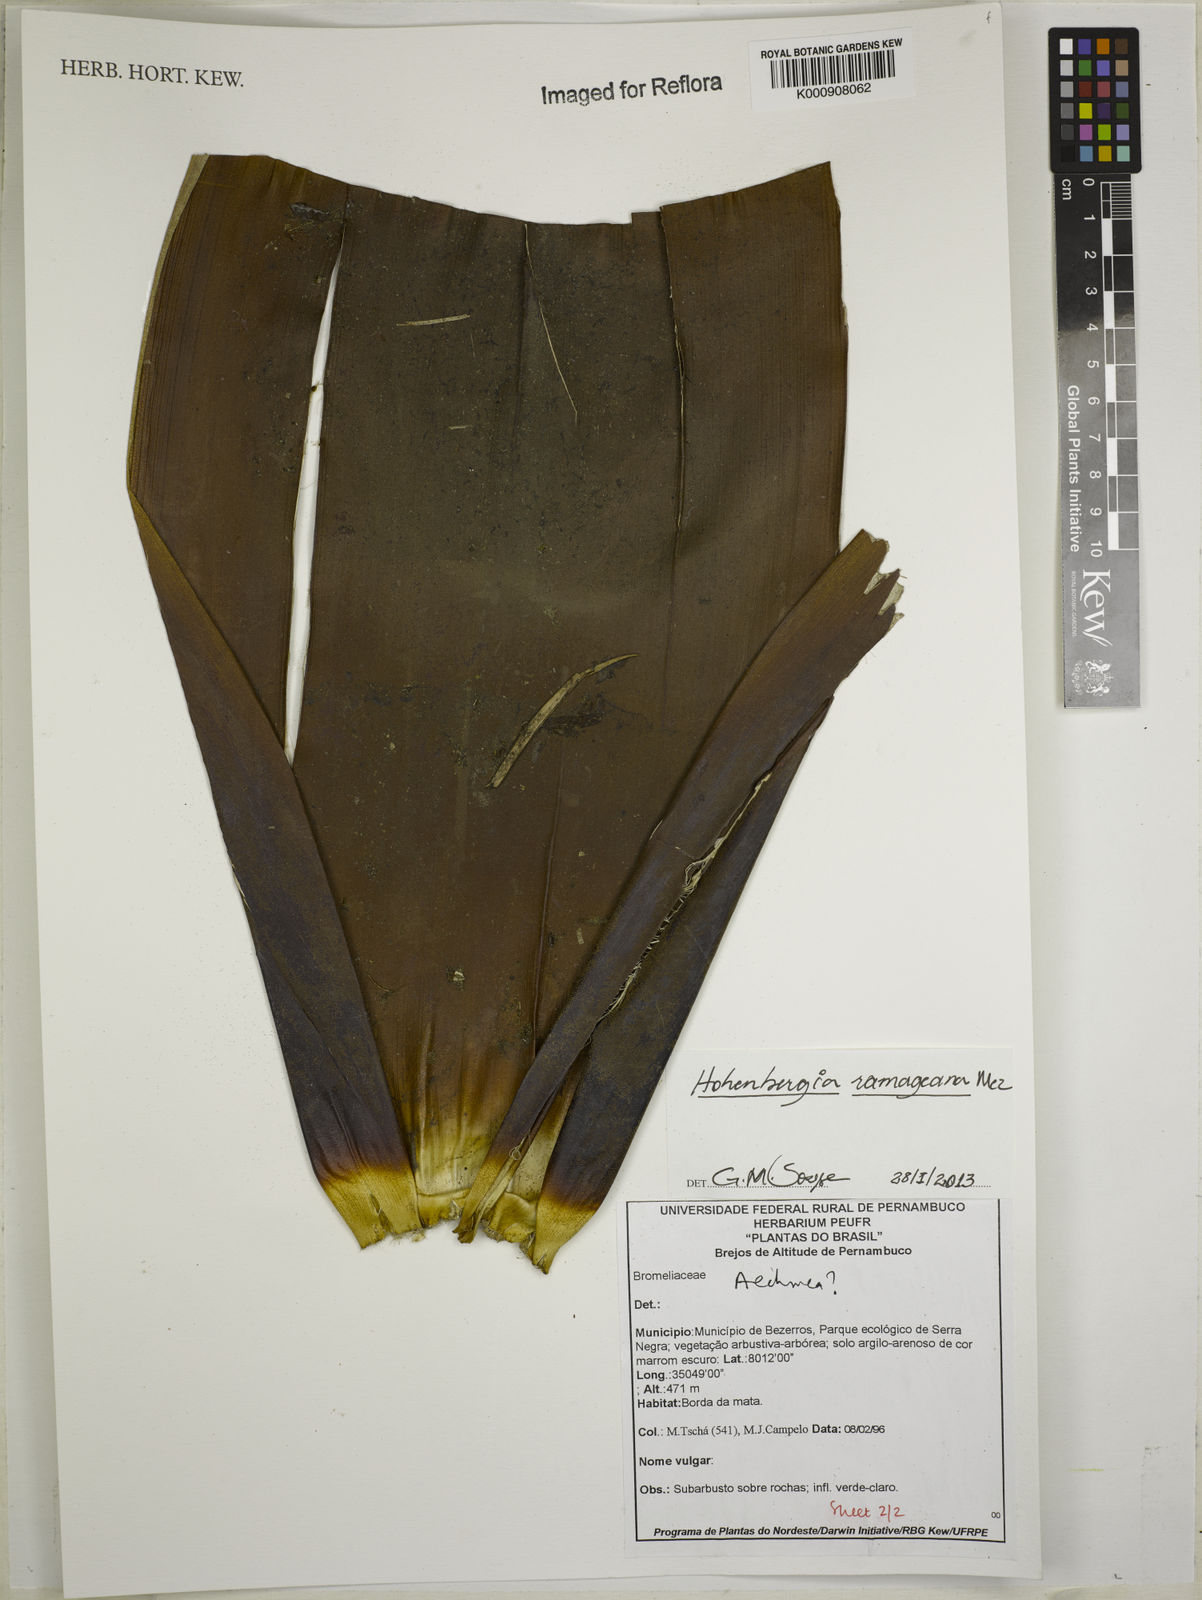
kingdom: Plantae
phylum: Tracheophyta
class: Liliopsida
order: Poales
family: Bromeliaceae
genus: Aechmea
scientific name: Aechmea nudicaulis
